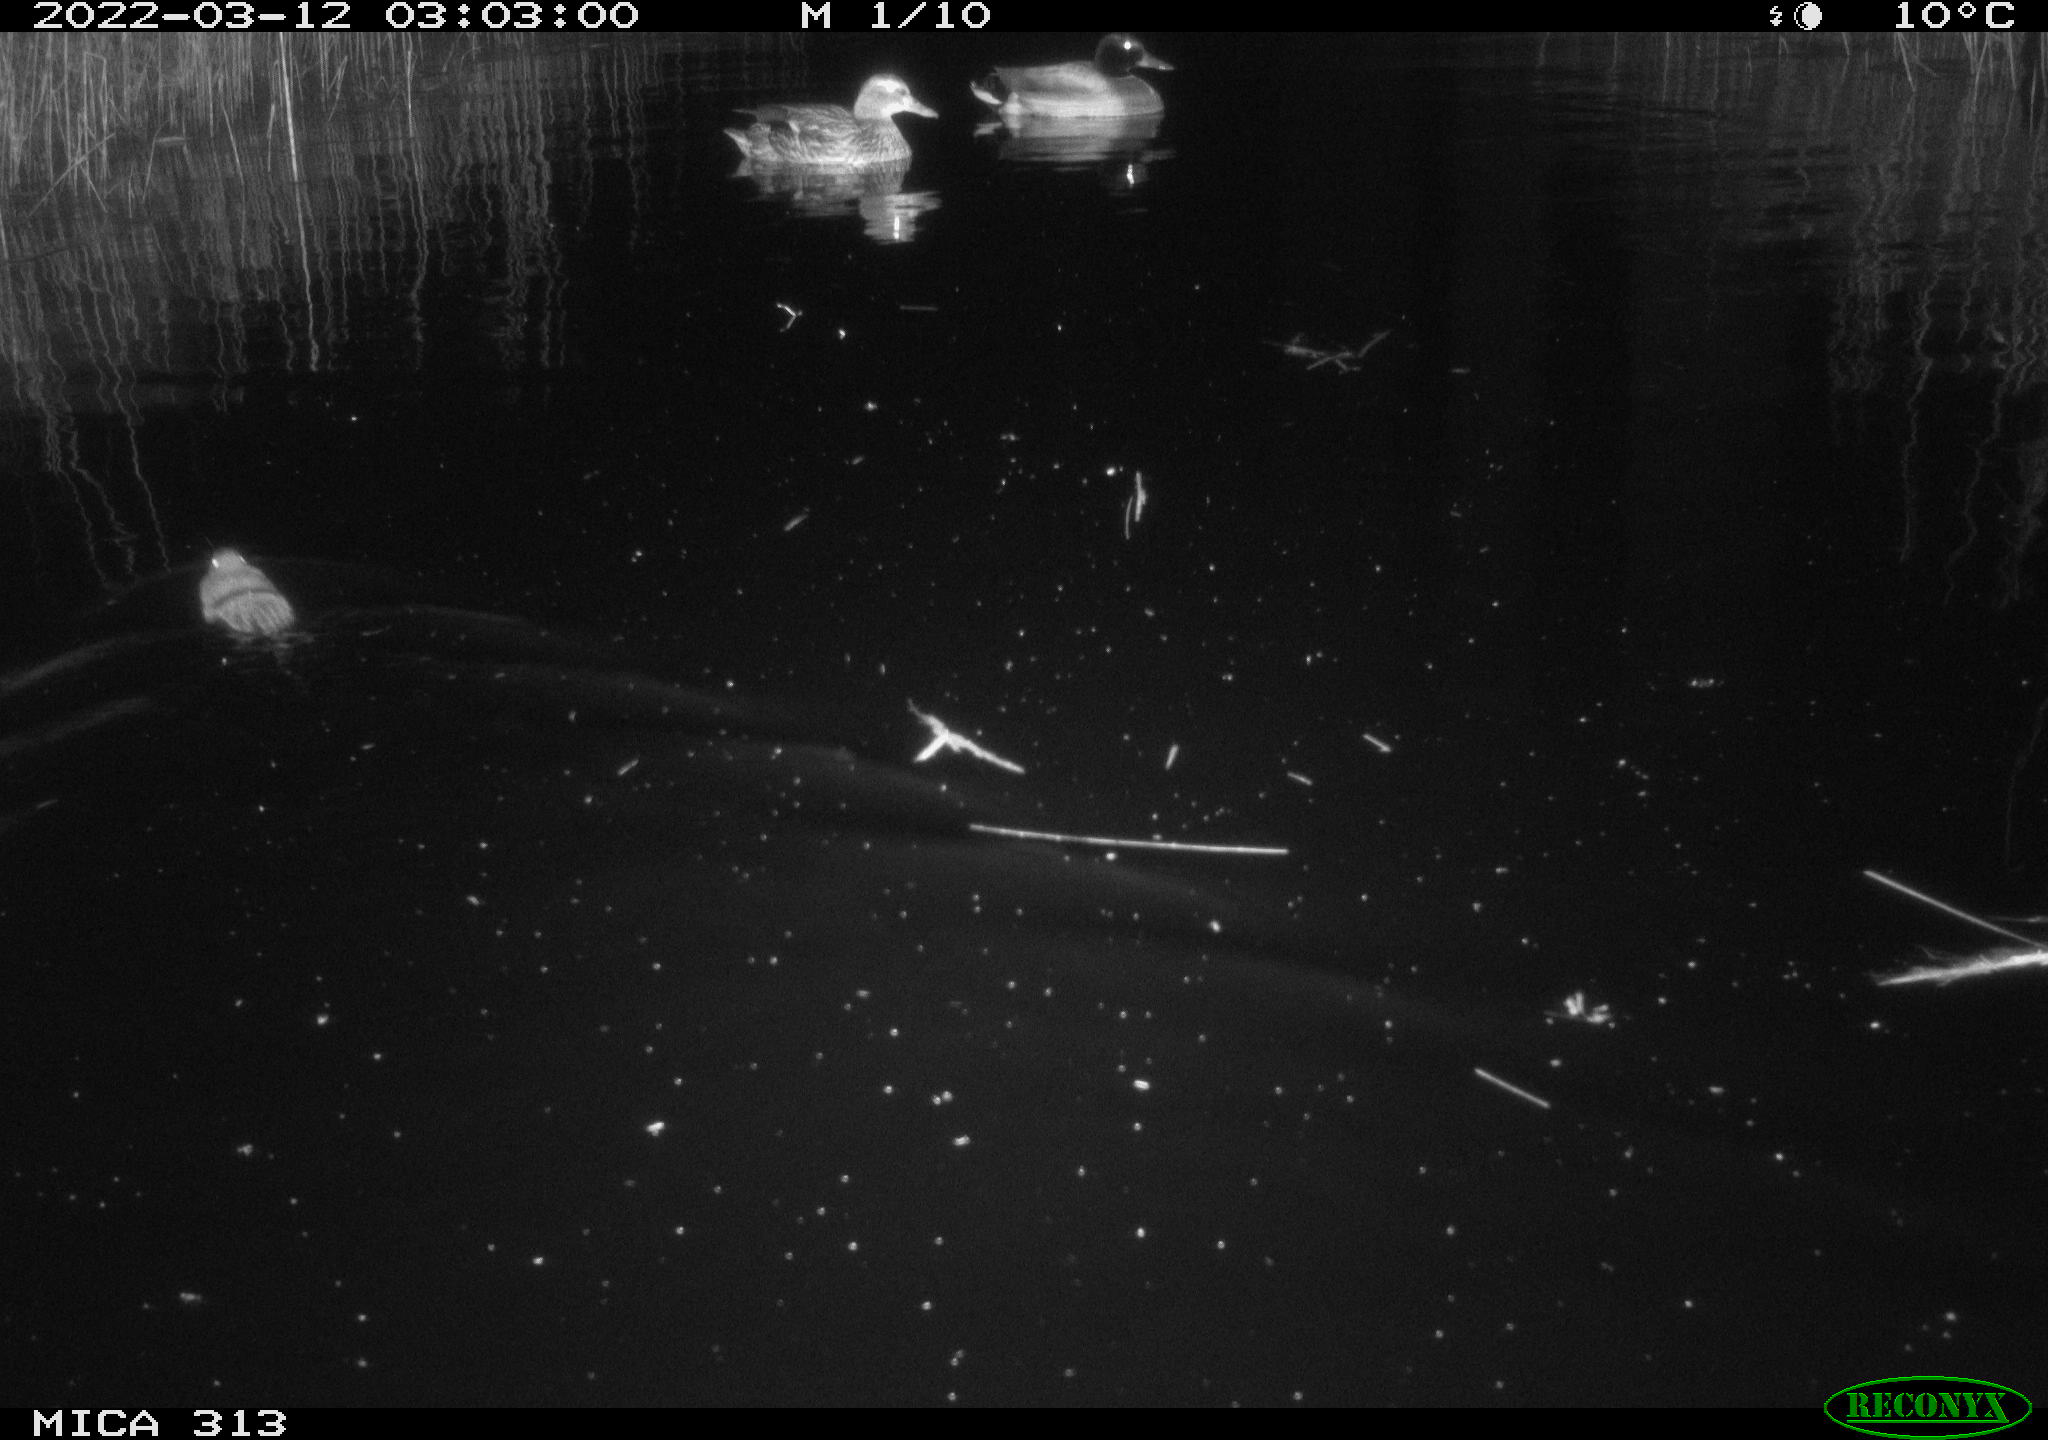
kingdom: Animalia
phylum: Chordata
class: Aves
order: Anseriformes
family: Anatidae
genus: Anas
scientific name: Anas platyrhynchos
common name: Mallard
